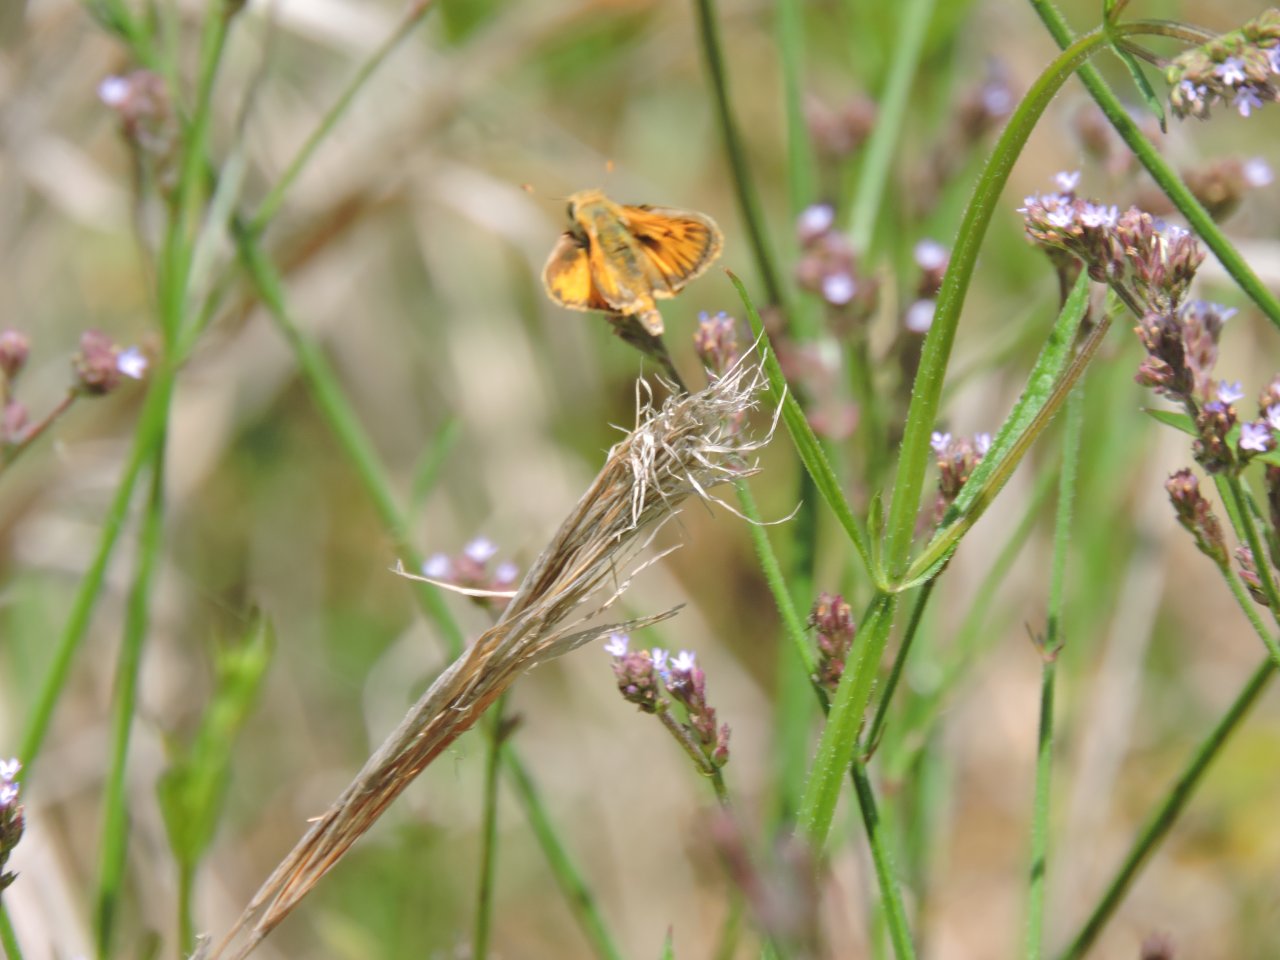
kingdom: Animalia
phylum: Arthropoda
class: Insecta
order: Lepidoptera
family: Hesperiidae
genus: Hylephila
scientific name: Hylephila phyleus
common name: Fiery Skipper
